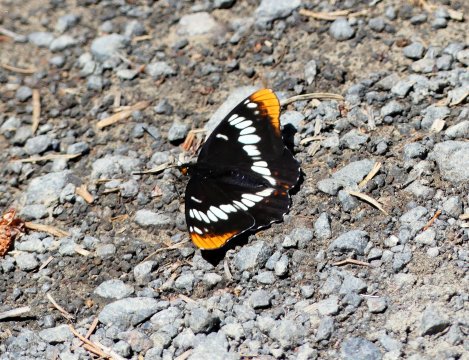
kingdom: Animalia
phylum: Arthropoda
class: Insecta
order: Lepidoptera
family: Nymphalidae
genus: Limenitis
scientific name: Limenitis lorquini
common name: Lorquin's Admiral
